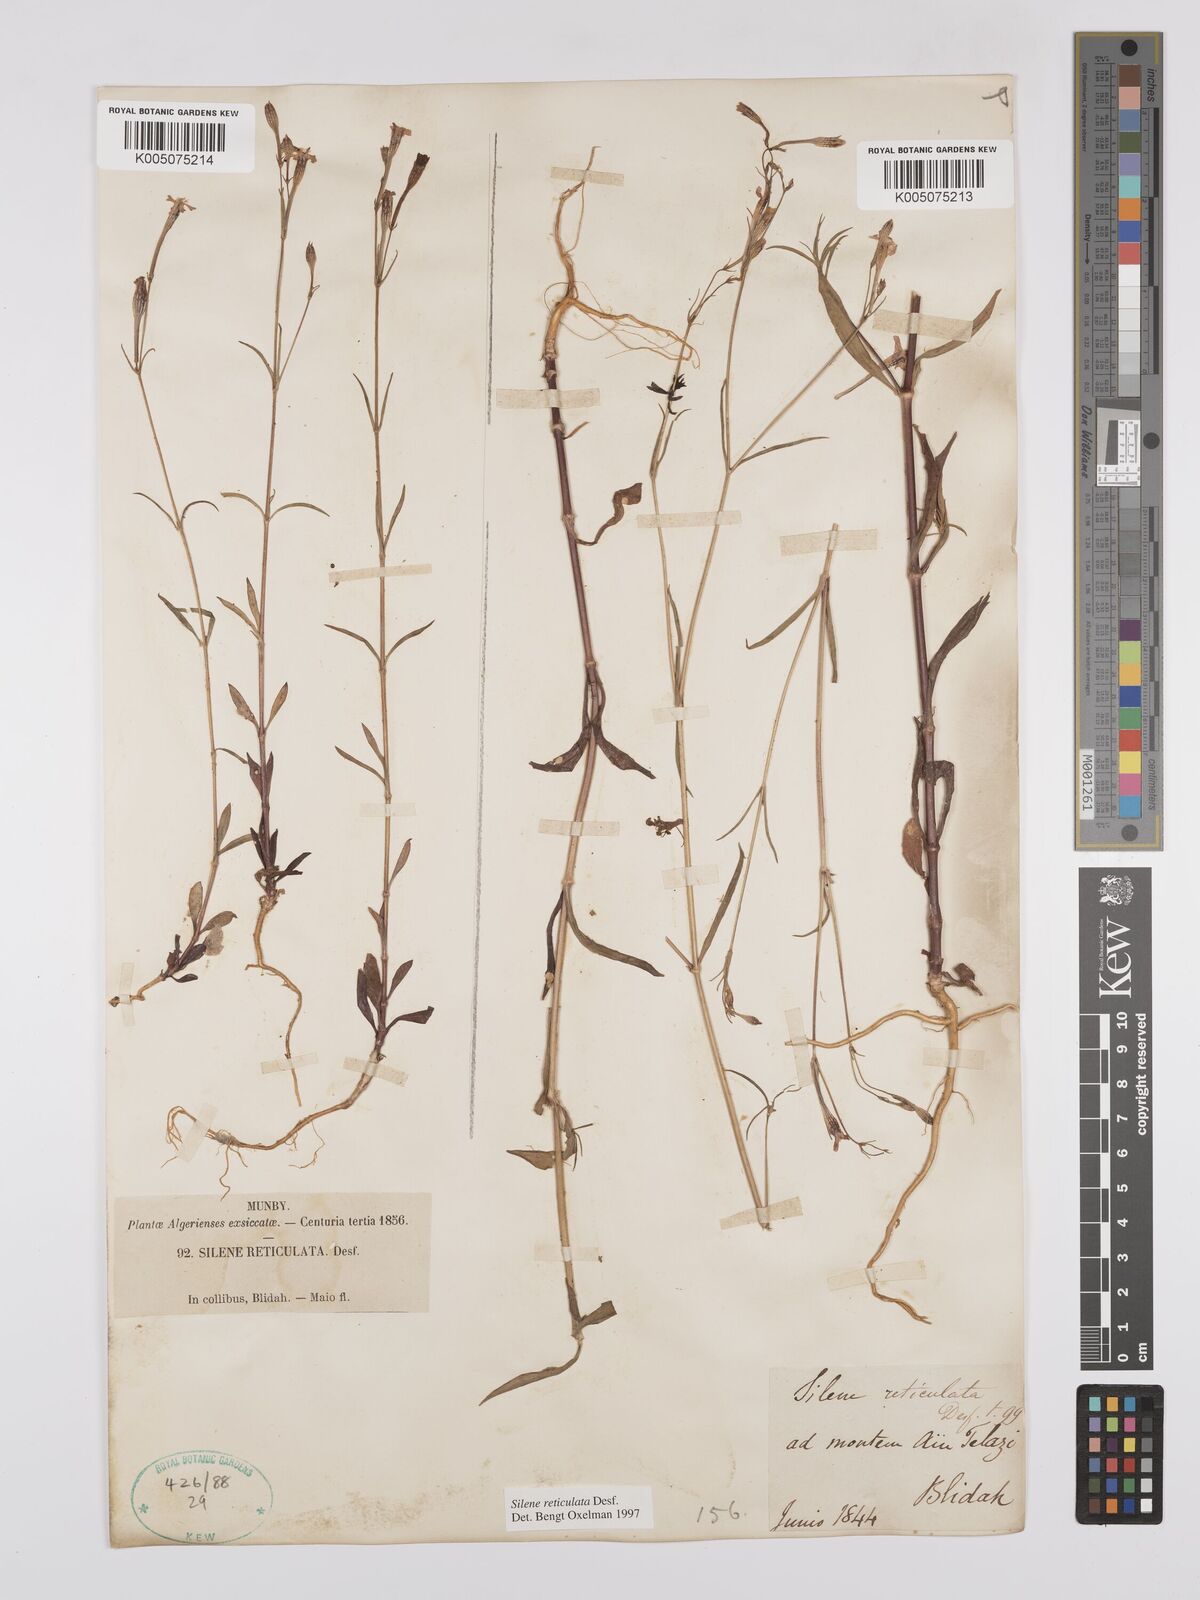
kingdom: Plantae
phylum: Tracheophyta
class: Magnoliopsida
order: Caryophyllales
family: Caryophyllaceae
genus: Silene
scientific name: Silene ramosissima
